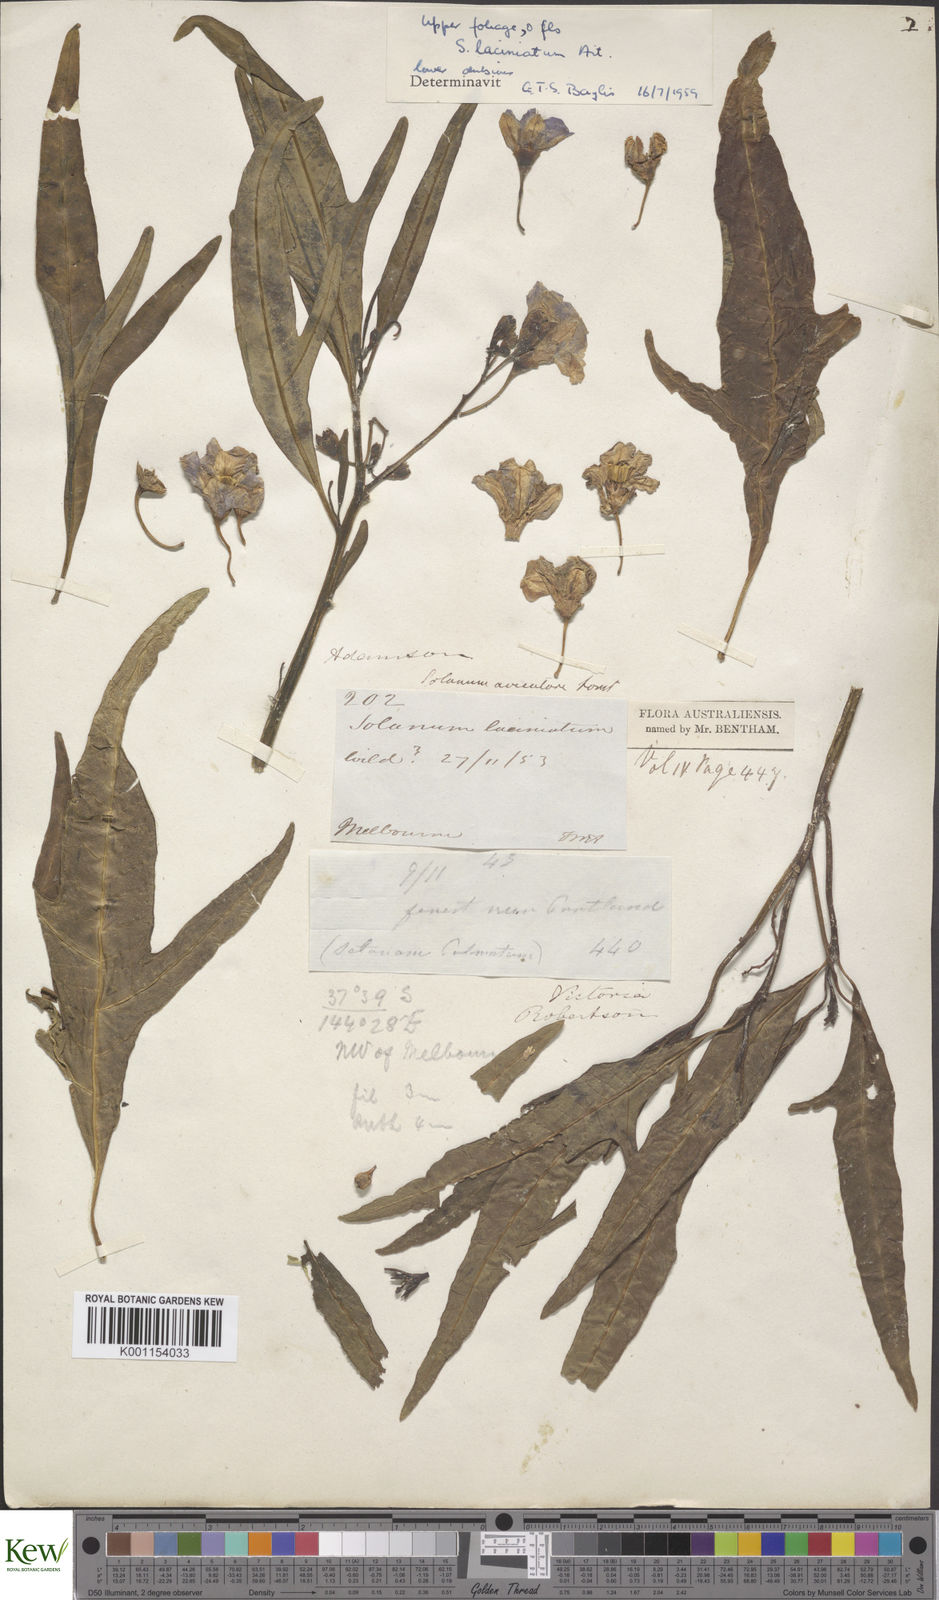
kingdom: Plantae
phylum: Tracheophyta
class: Magnoliopsida
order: Solanales
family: Solanaceae
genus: Solanum
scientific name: Solanum laciniatum
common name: Kangaroo-apple
